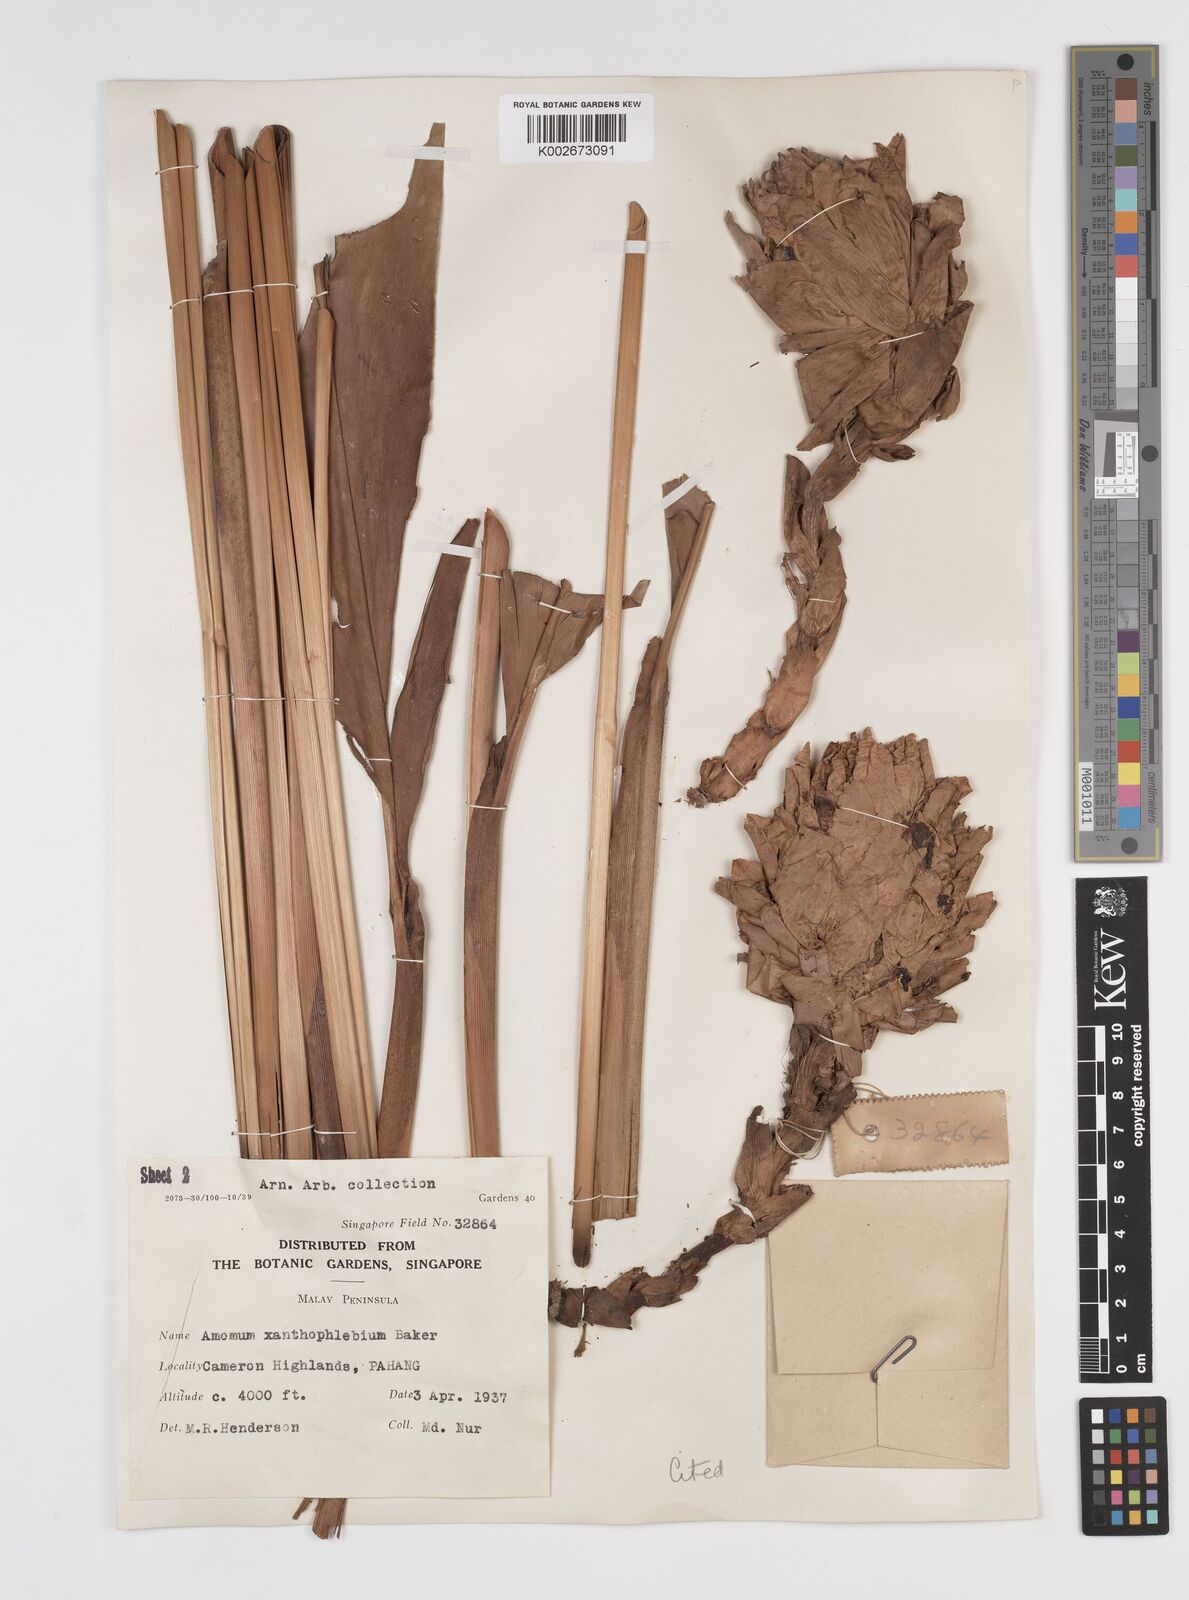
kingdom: Plantae
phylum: Tracheophyta
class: Liliopsida
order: Zingiberales
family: Zingiberaceae
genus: Conamomum
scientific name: Conamomum xanthophlebium
